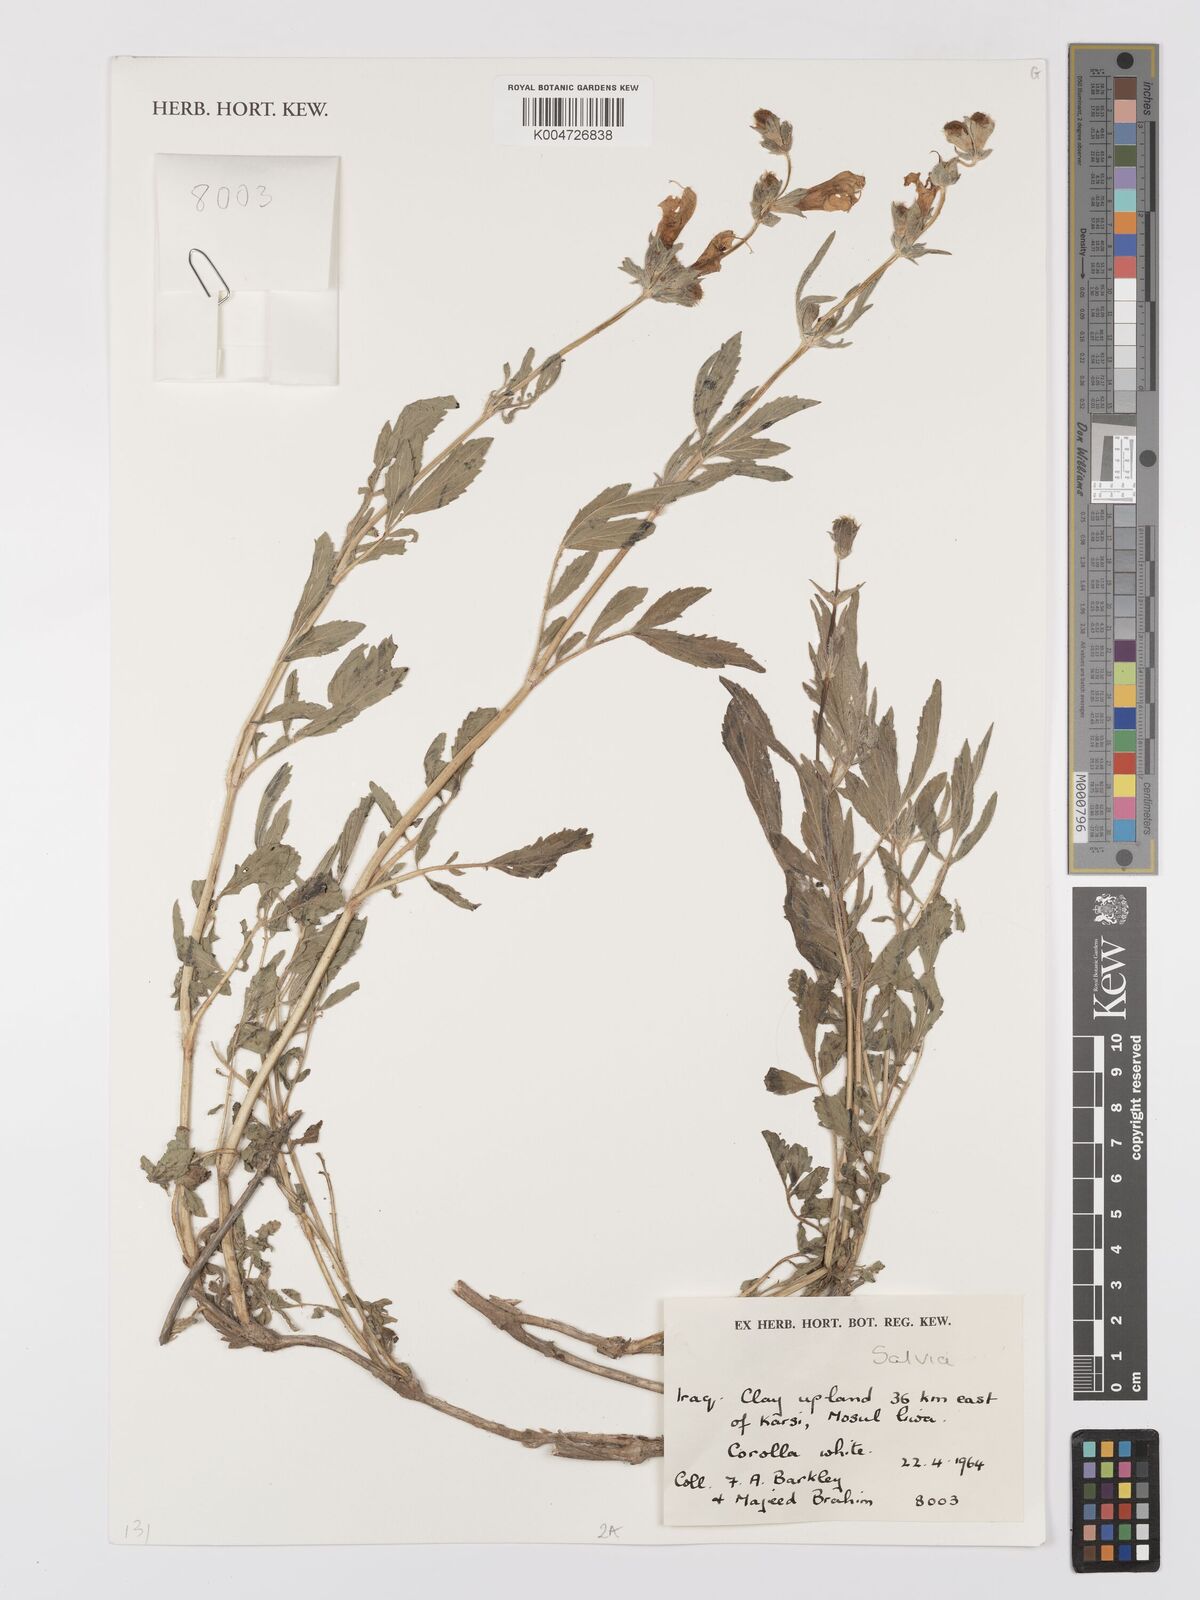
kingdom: Plantae
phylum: Tracheophyta
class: Magnoliopsida
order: Lamiales
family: Lamiaceae
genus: Salvia
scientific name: Salvia
